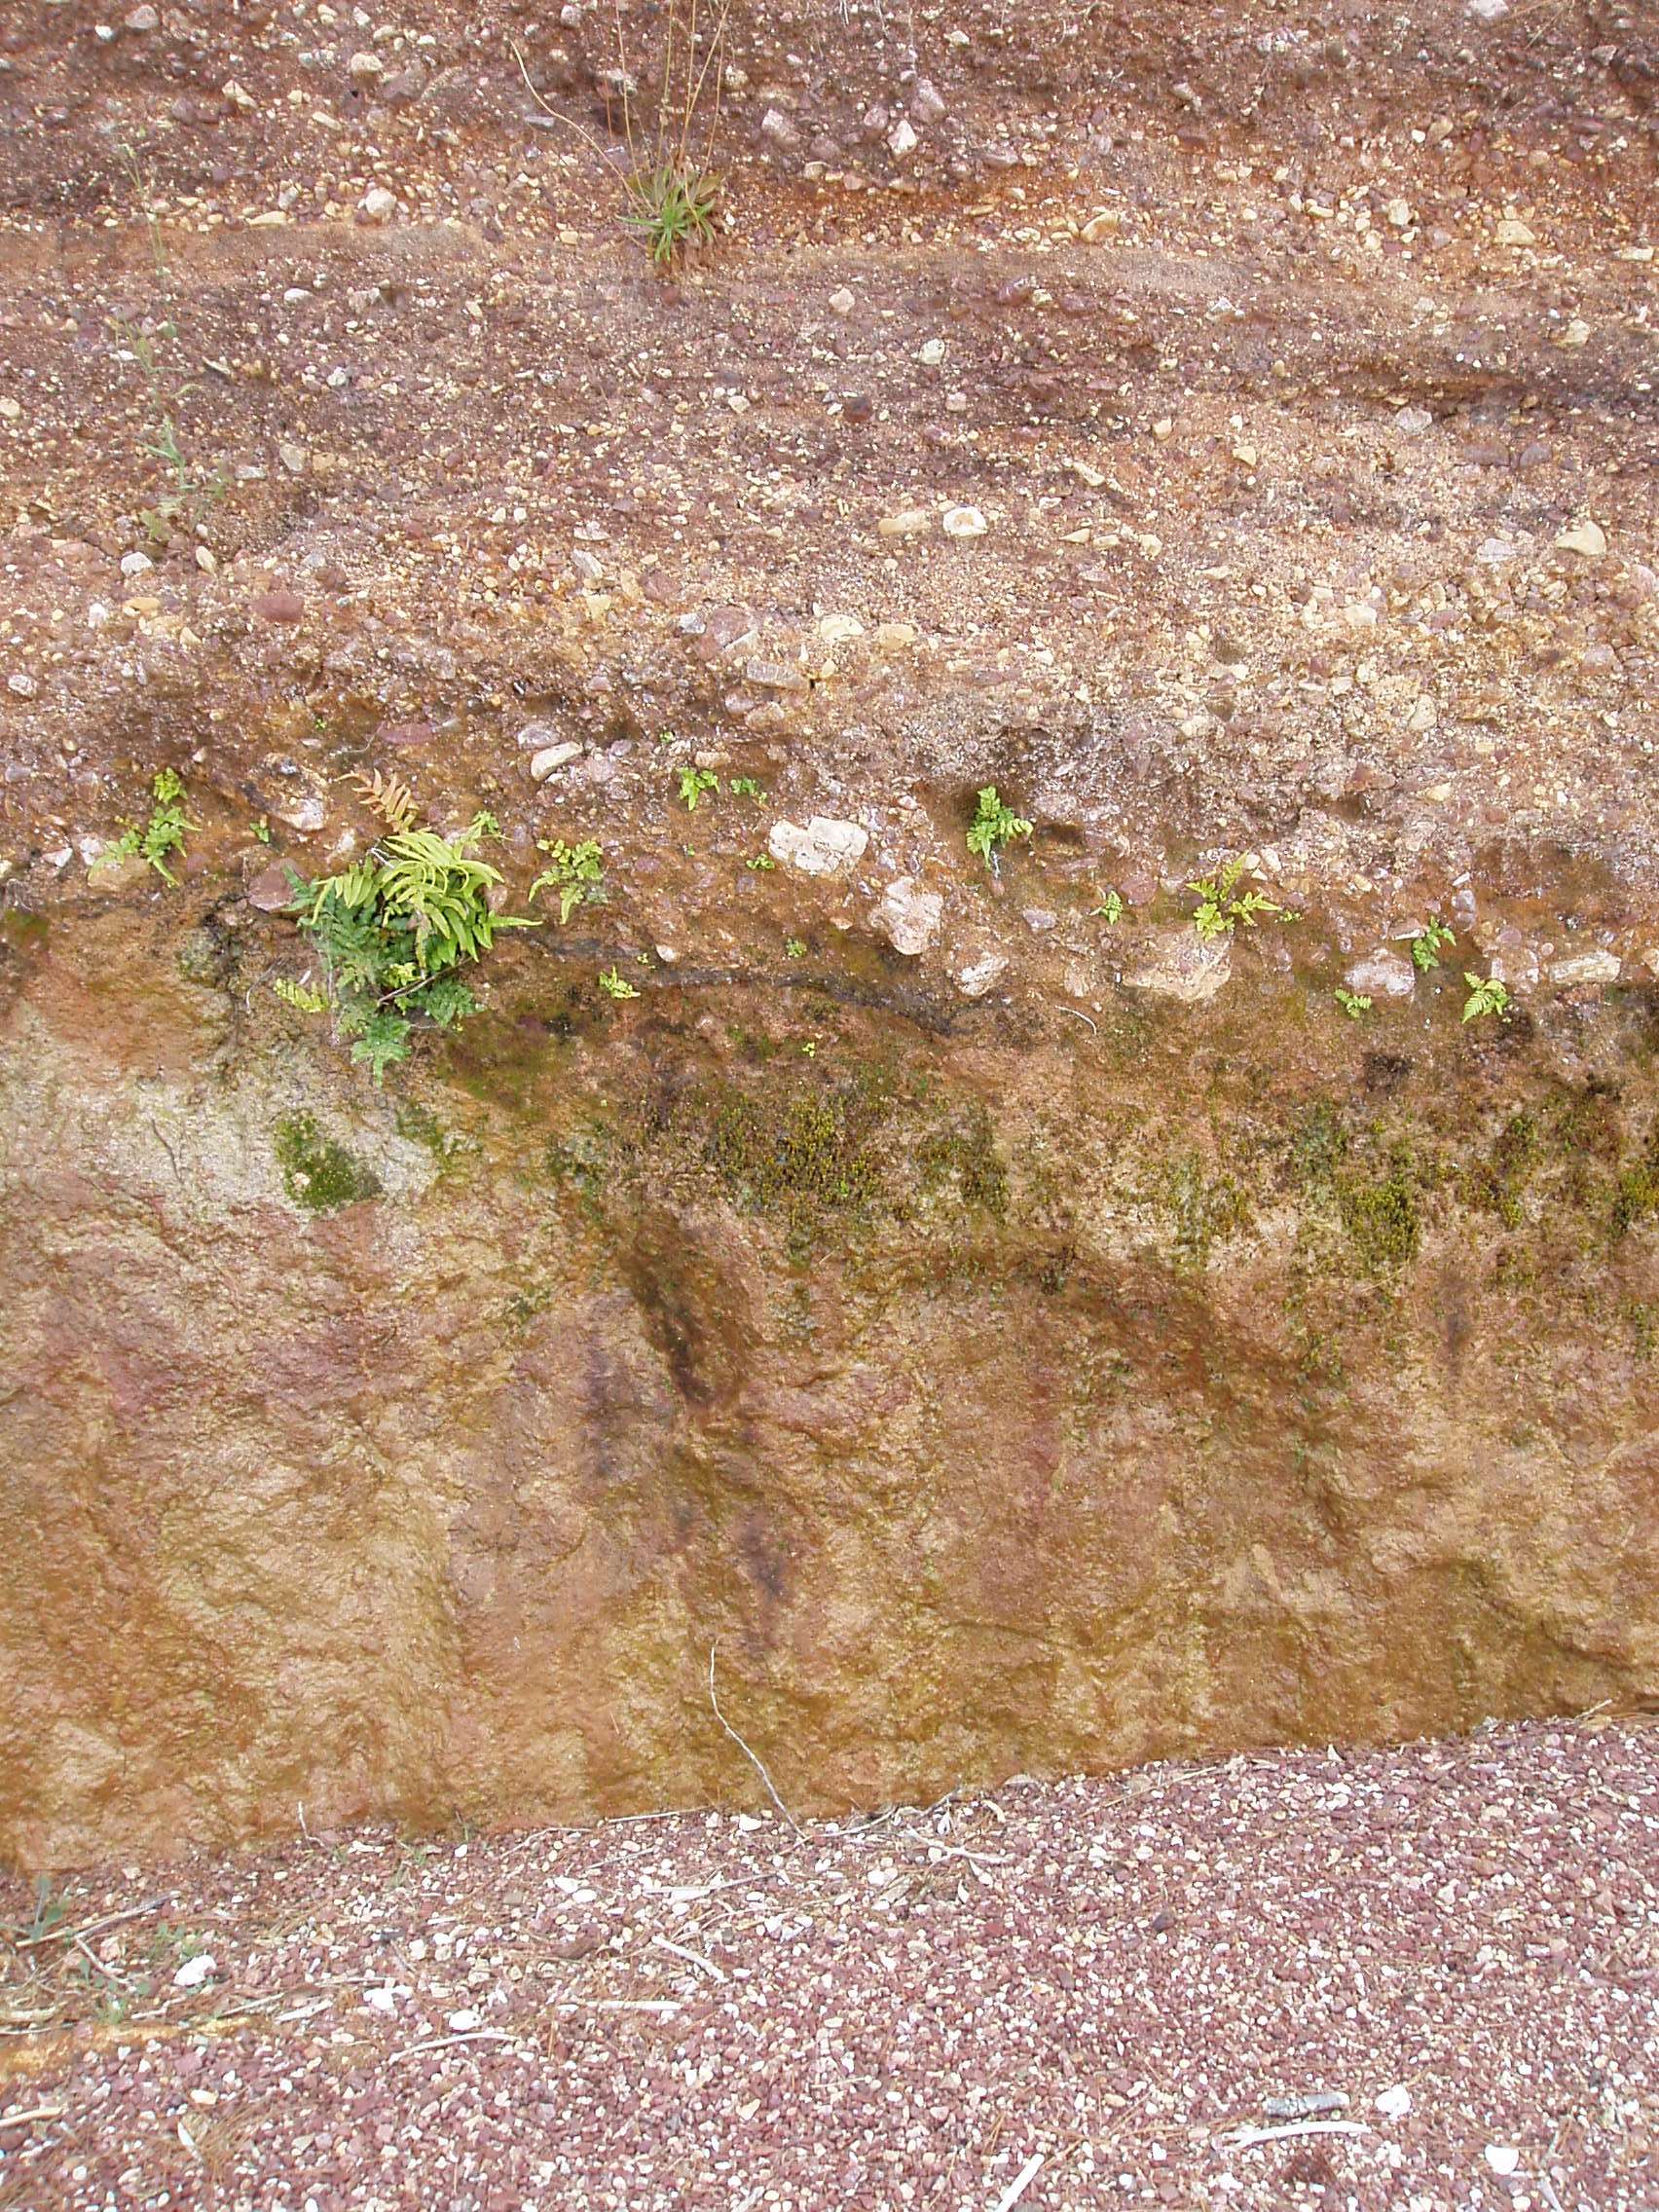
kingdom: Plantae
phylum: Bryophyta
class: Polytrichopsida
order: Polytrichales
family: Polytrichaceae
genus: Polytrichadelphus
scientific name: Polytrichadelphus magellanicus
